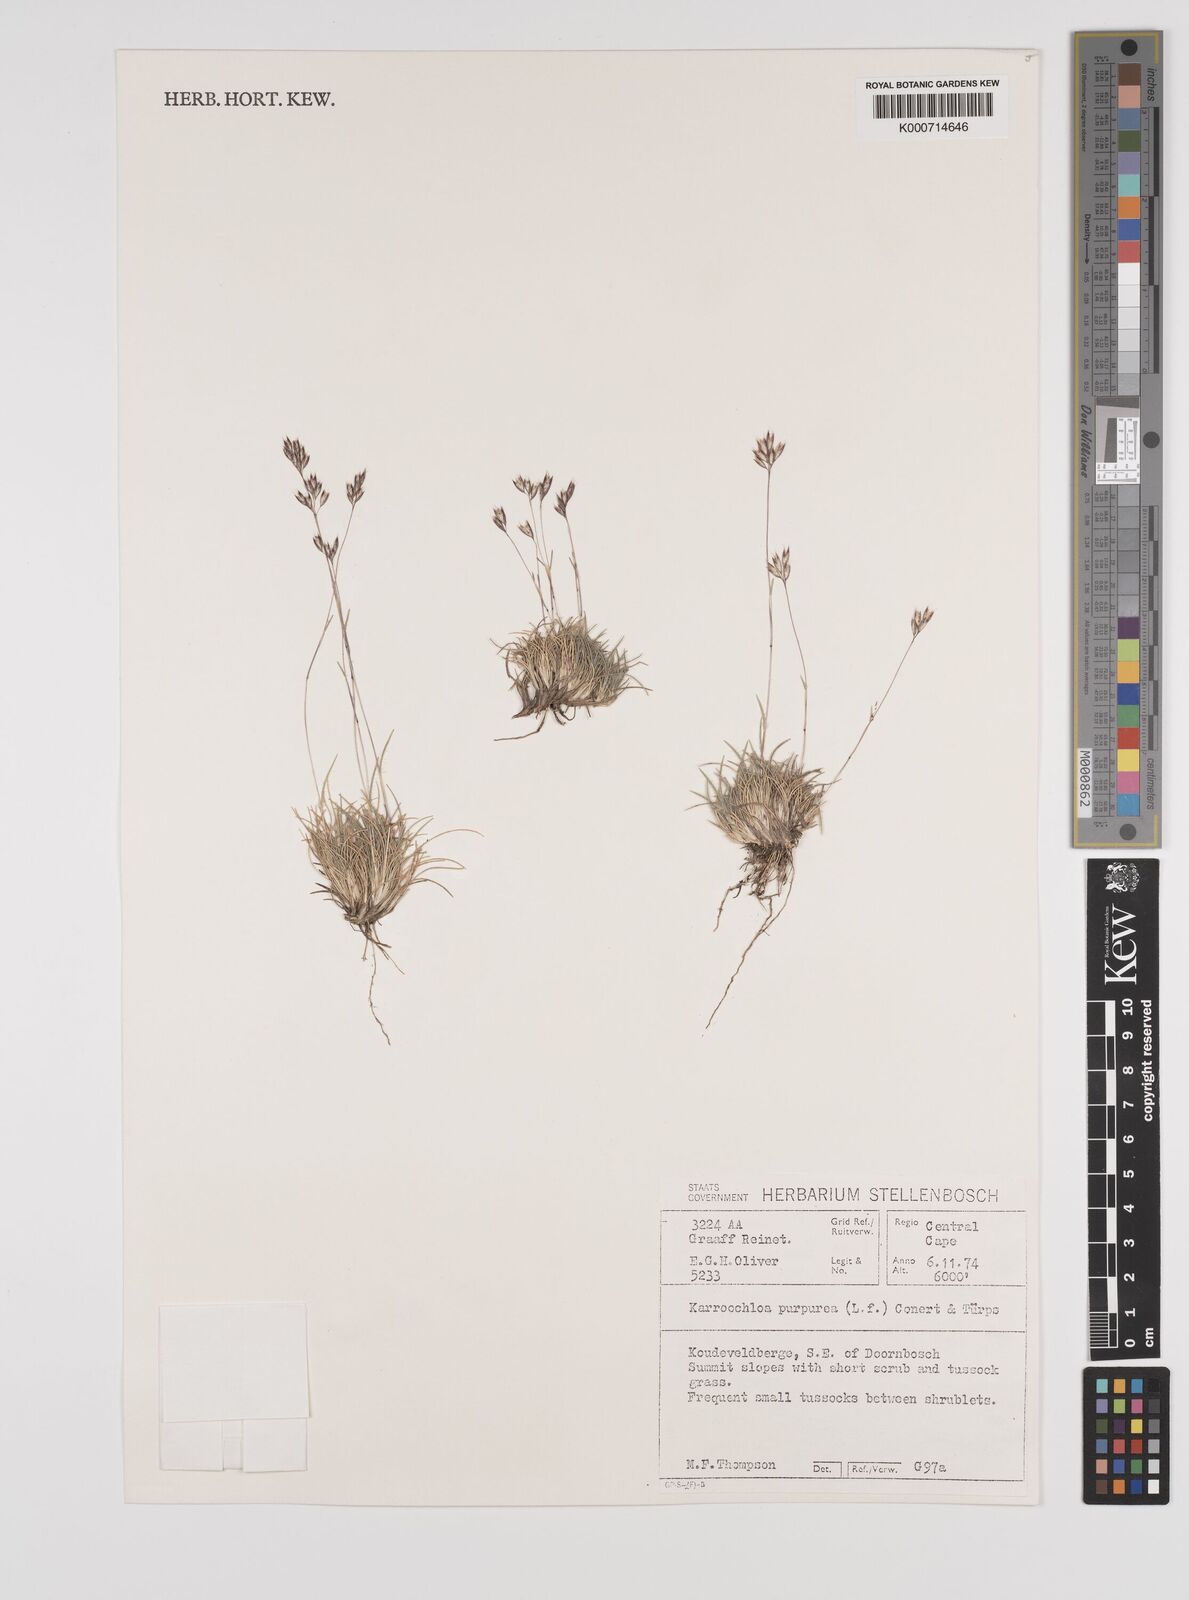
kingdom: Plantae
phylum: Tracheophyta
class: Liliopsida
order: Poales
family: Poaceae
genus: Rytidosperma
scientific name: Rytidosperma
